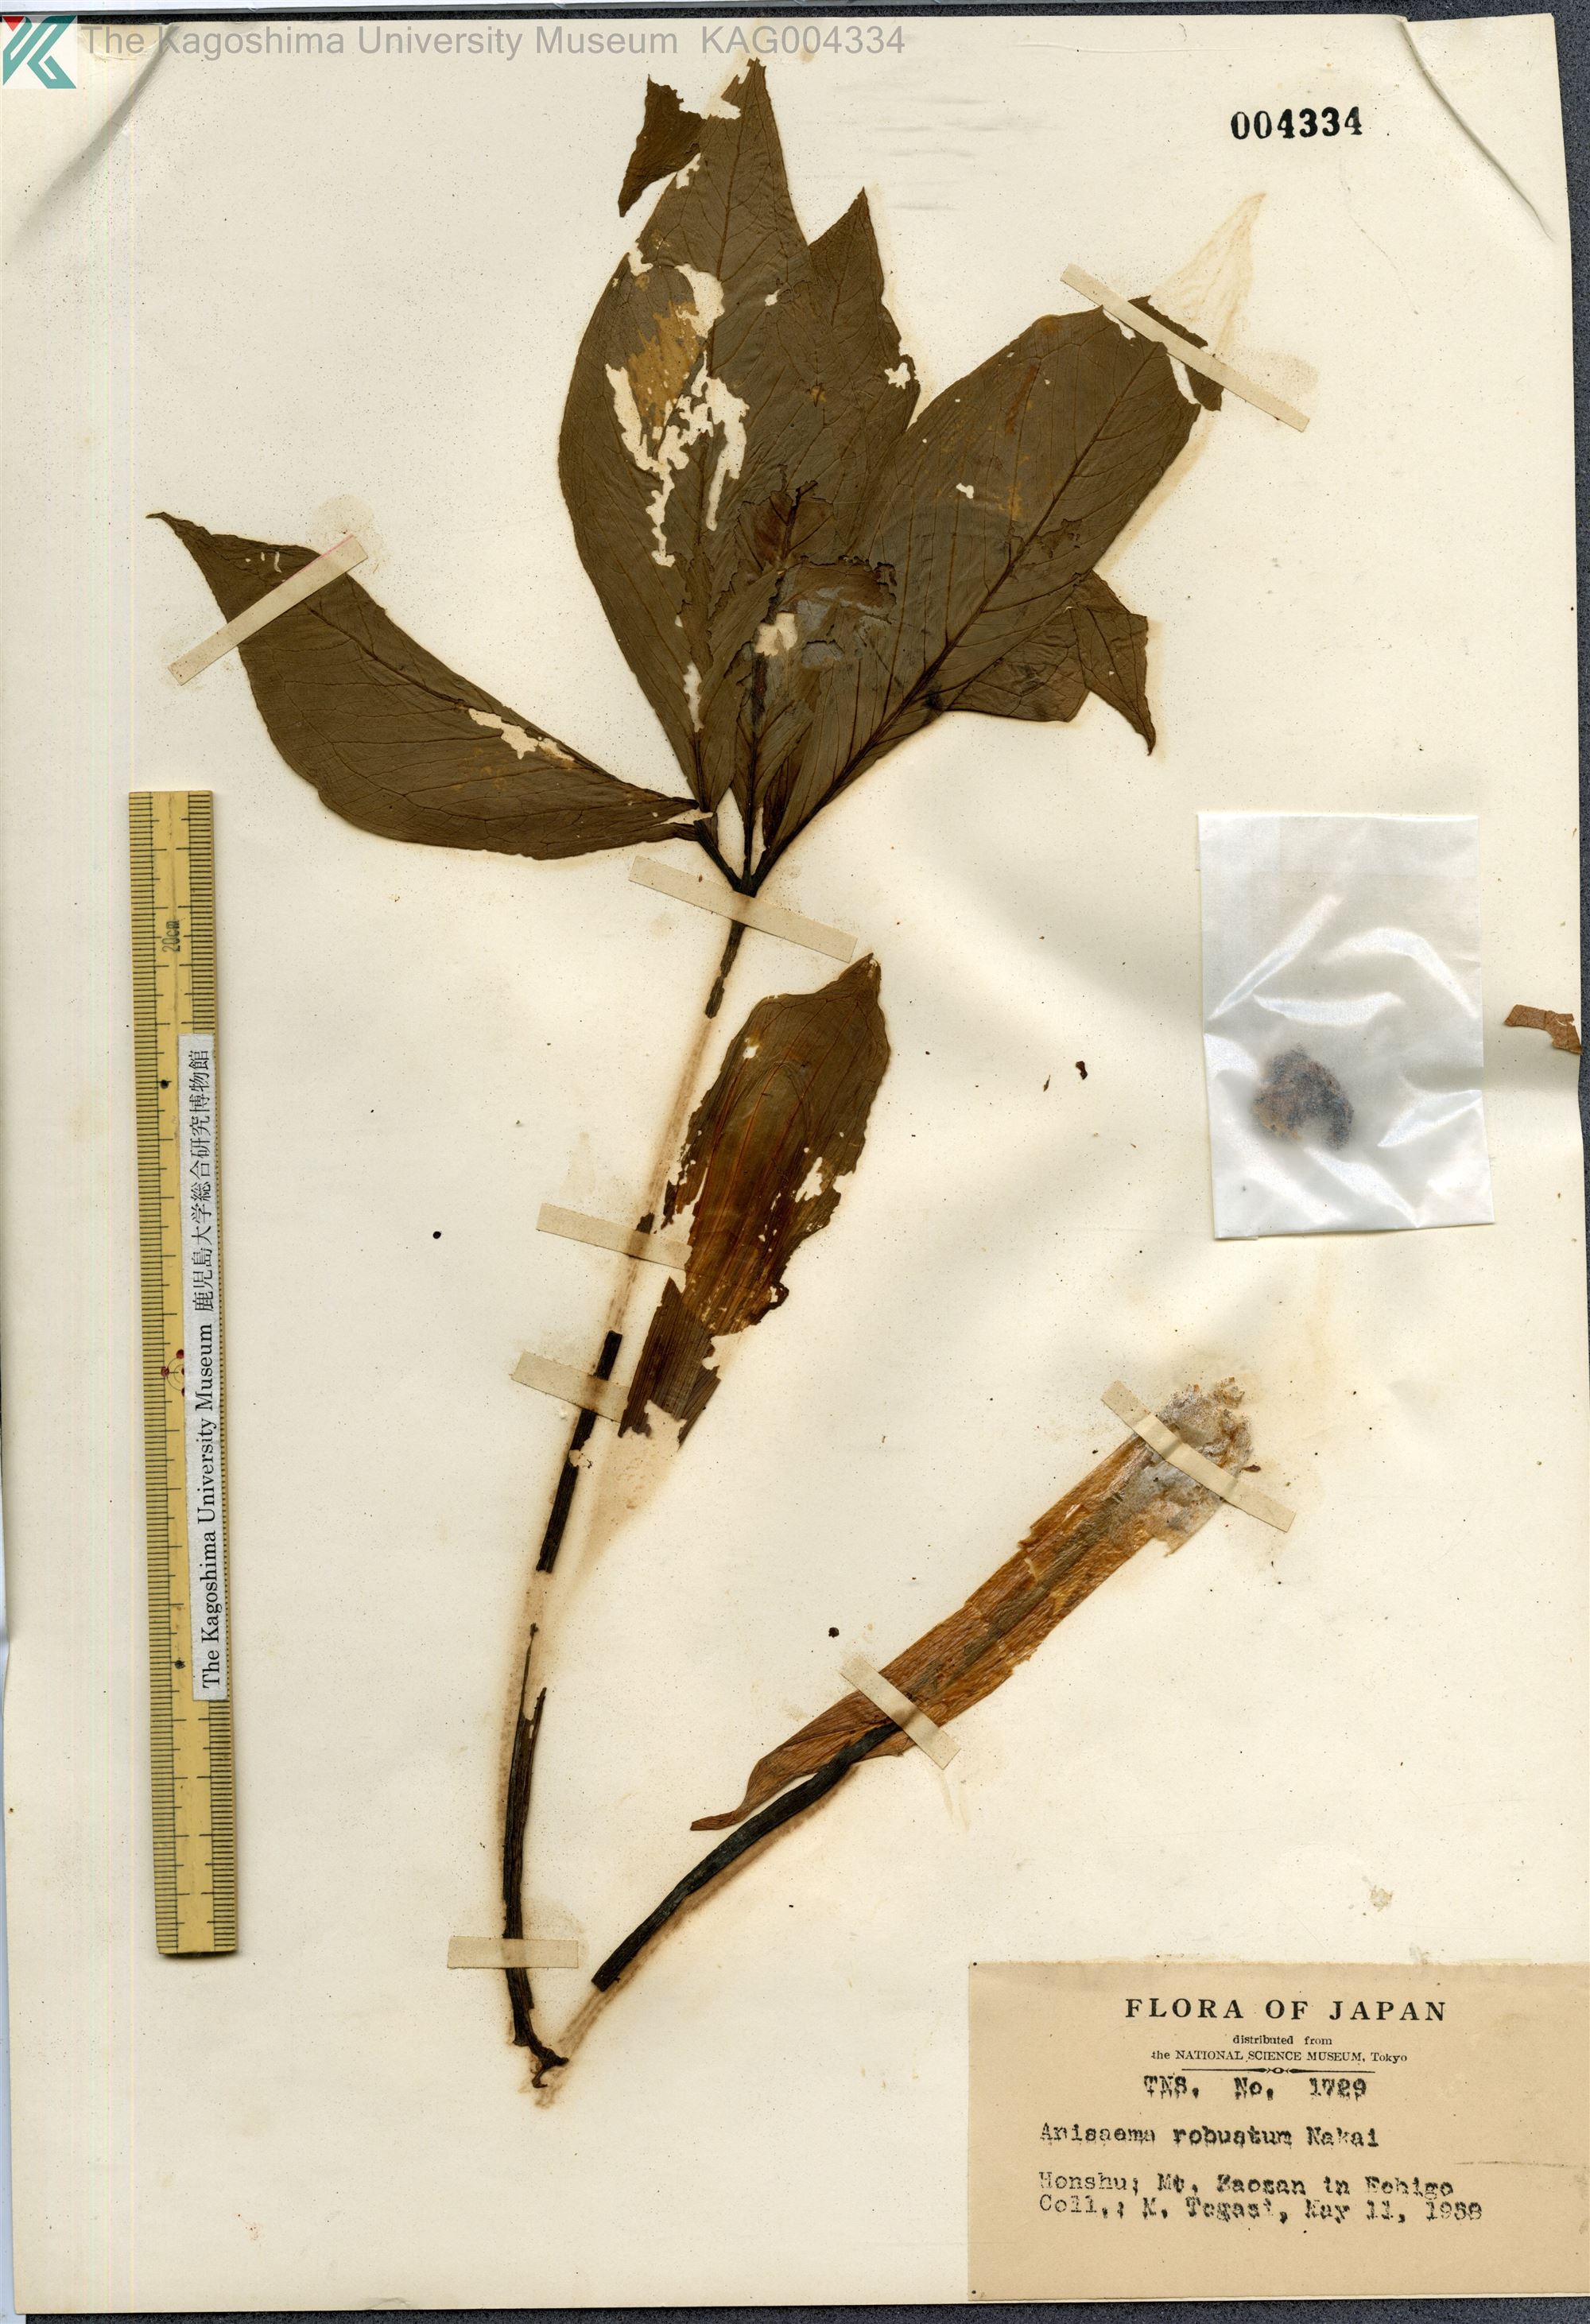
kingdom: Plantae
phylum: Tracheophyta
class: Liliopsida
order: Alismatales
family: Araceae
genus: Arisaema
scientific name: Arisaema amurense
